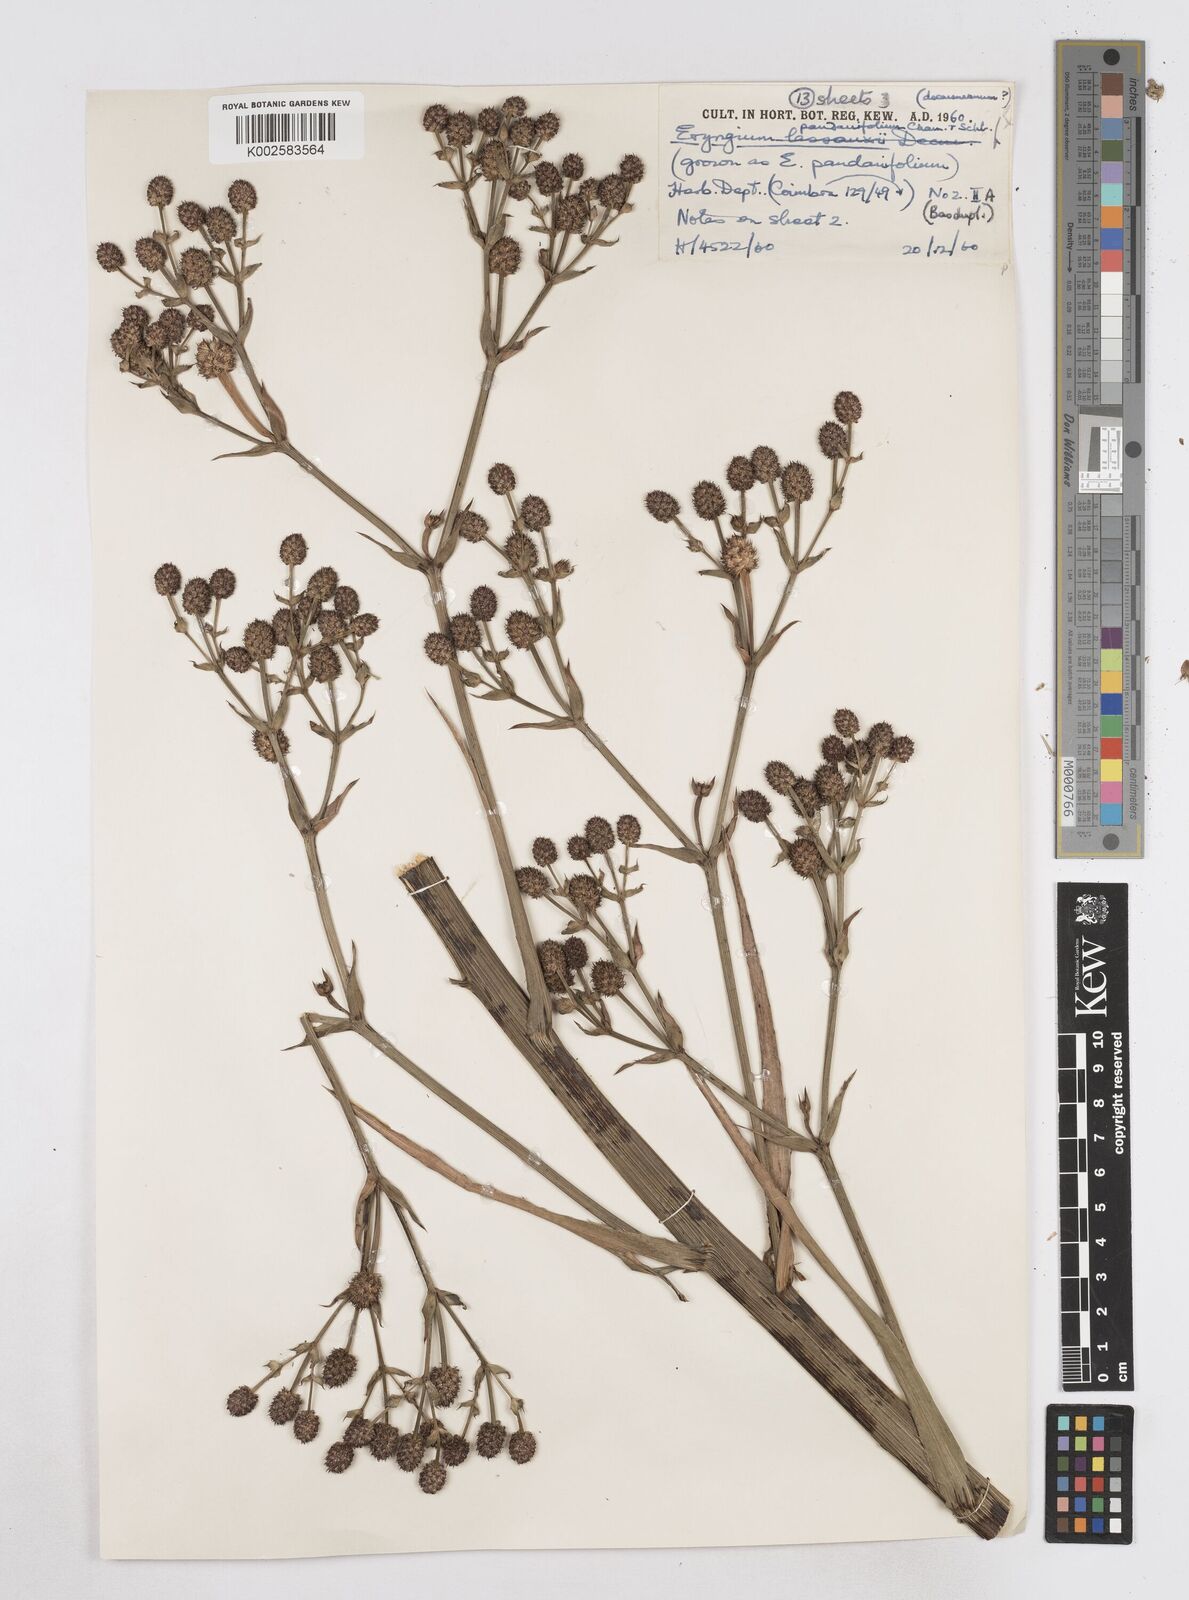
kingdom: Plantae
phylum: Tracheophyta
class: Magnoliopsida
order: Apiales
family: Apiaceae
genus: Eryngium
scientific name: Eryngium pandanifolium
